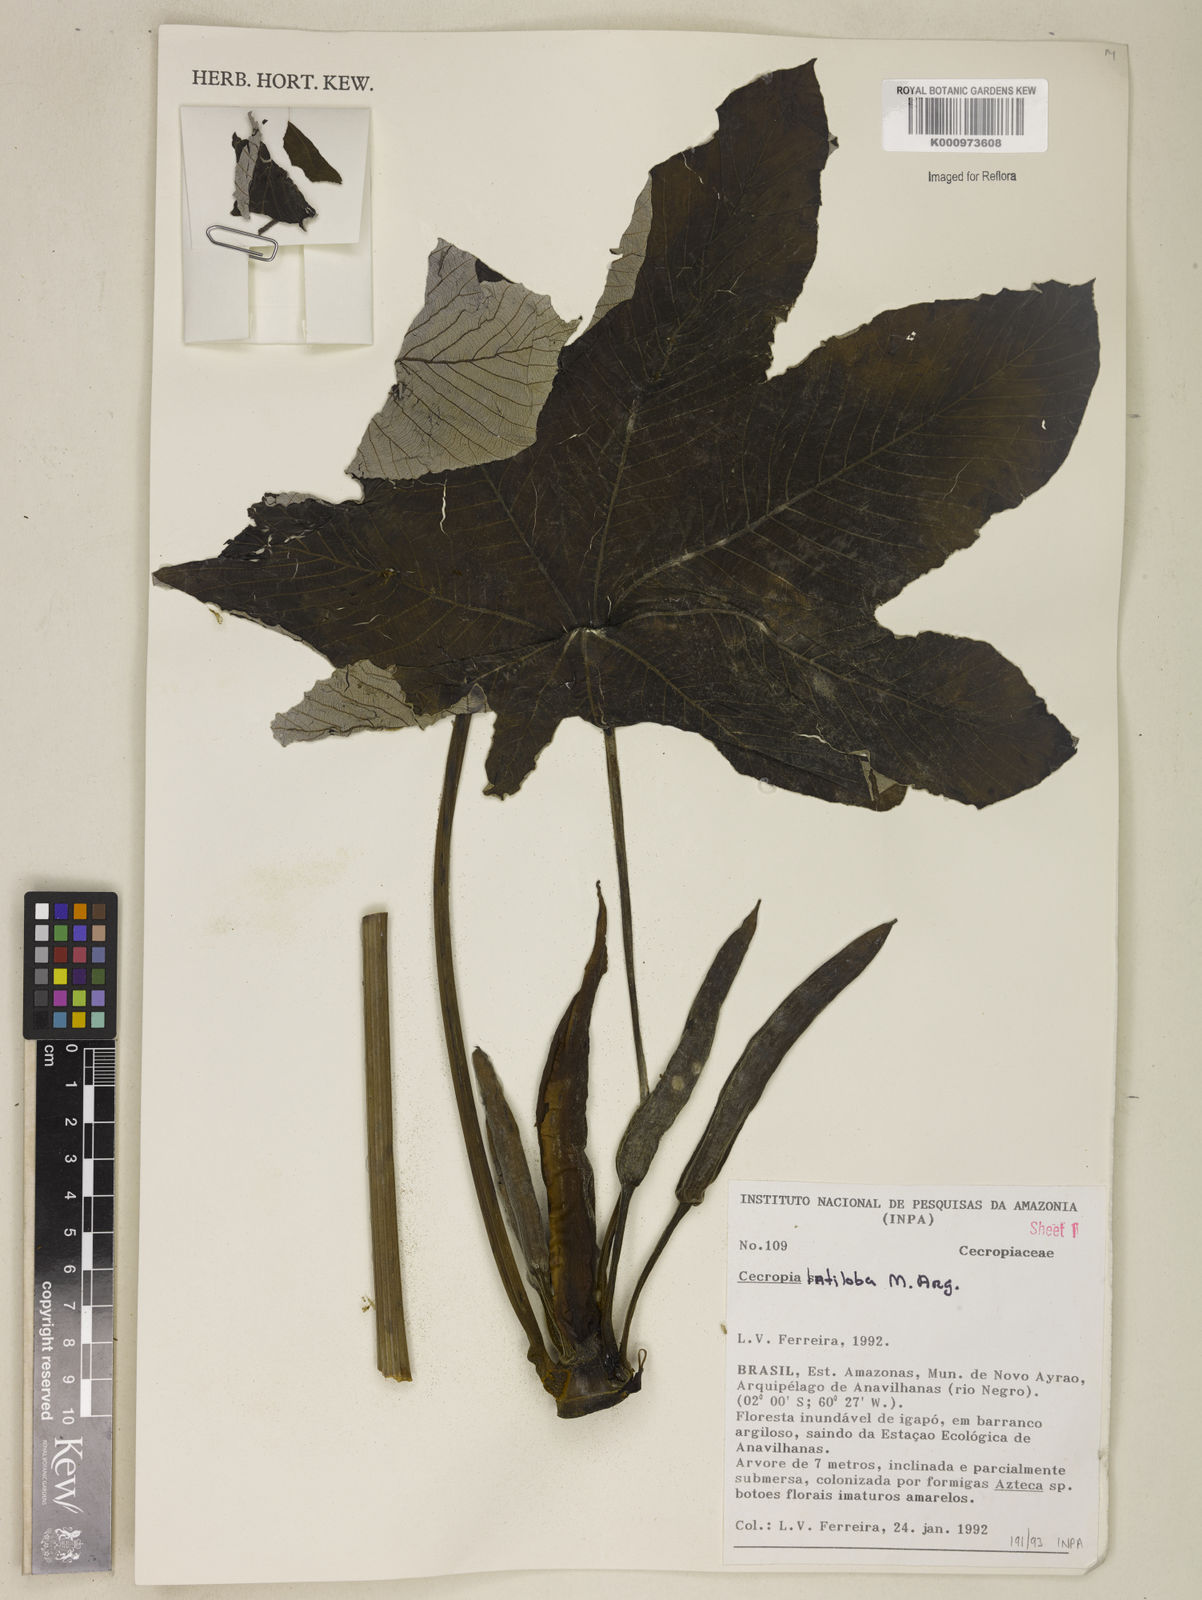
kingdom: Plantae
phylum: Tracheophyta
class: Magnoliopsida
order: Rosales
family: Urticaceae
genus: Cecropia
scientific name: Cecropia latiloba
